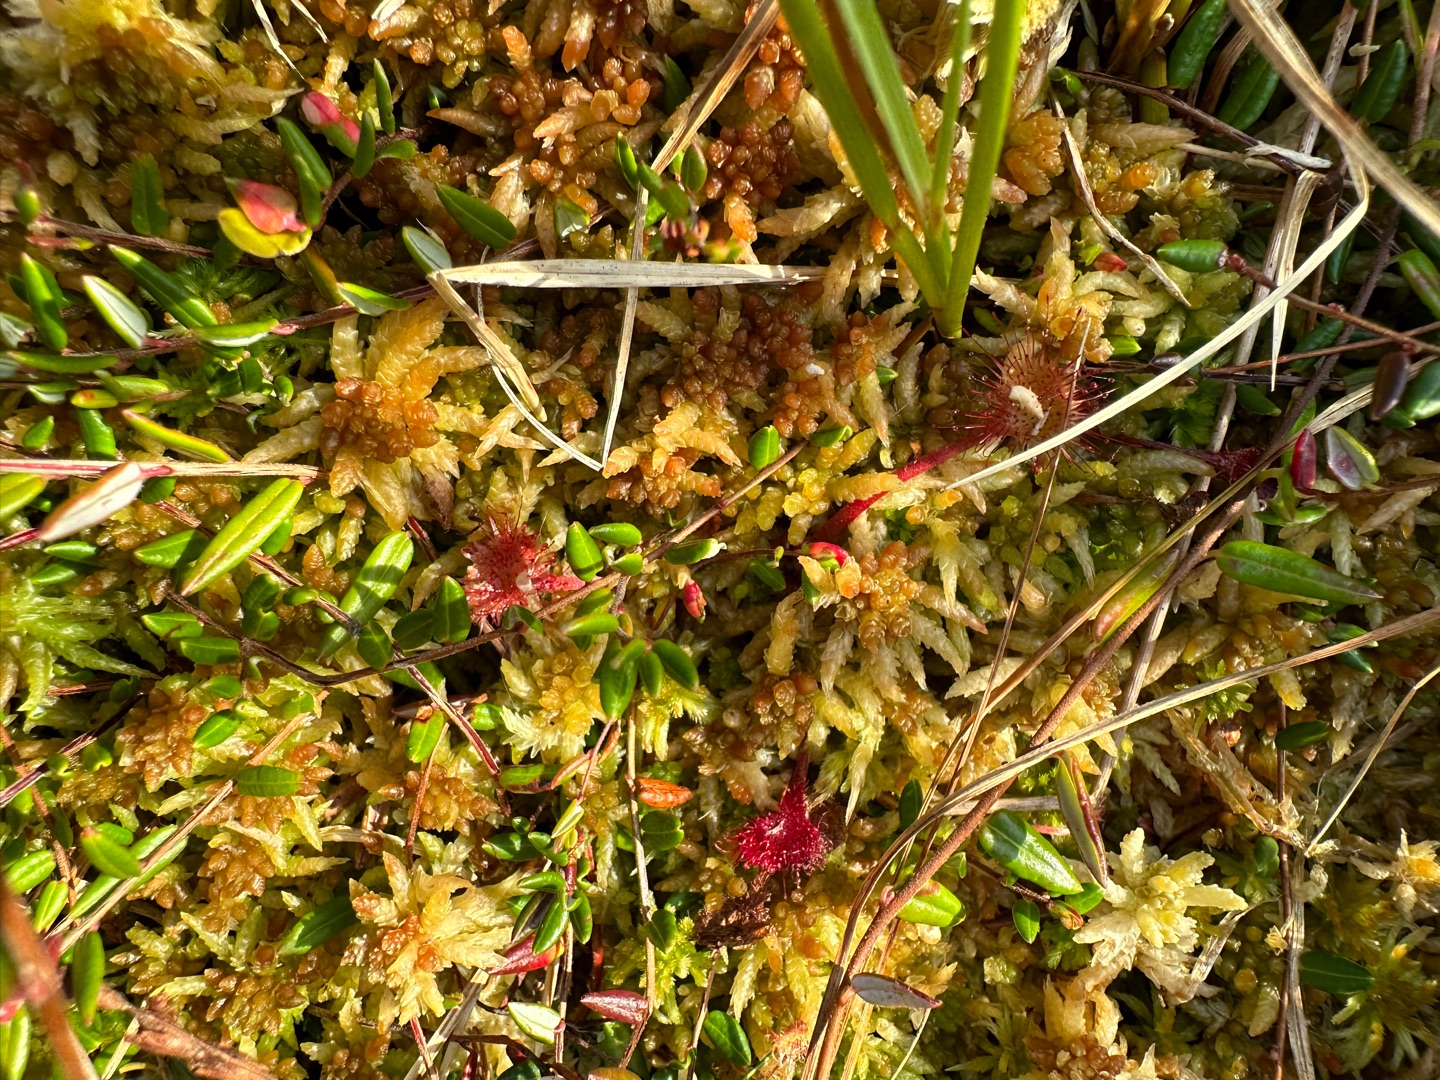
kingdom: Plantae
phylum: Tracheophyta
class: Magnoliopsida
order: Caryophyllales
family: Droseraceae
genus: Drosera
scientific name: Drosera rotundifolia
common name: Rundbladet soldug
